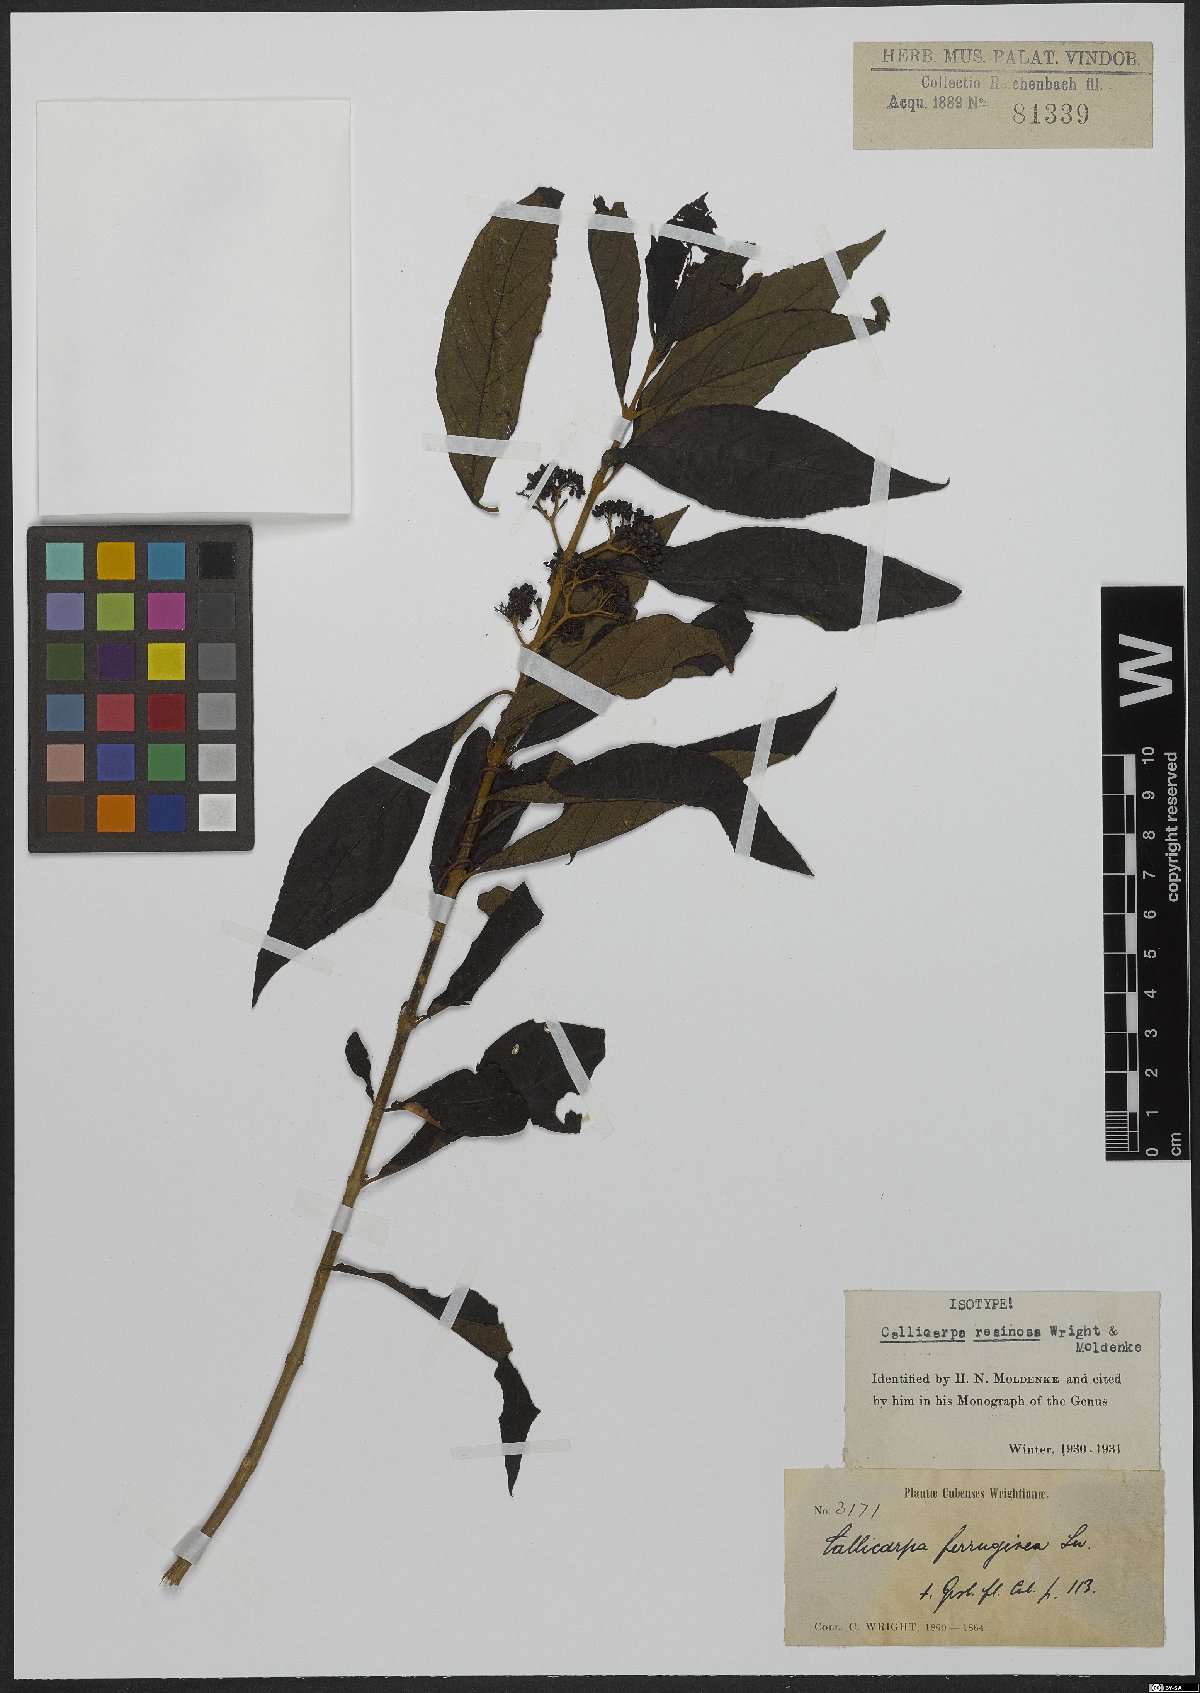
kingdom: Plantae
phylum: Tracheophyta
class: Magnoliopsida
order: Lamiales
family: Lamiaceae
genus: Callicarpa
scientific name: Callicarpa resinosa
